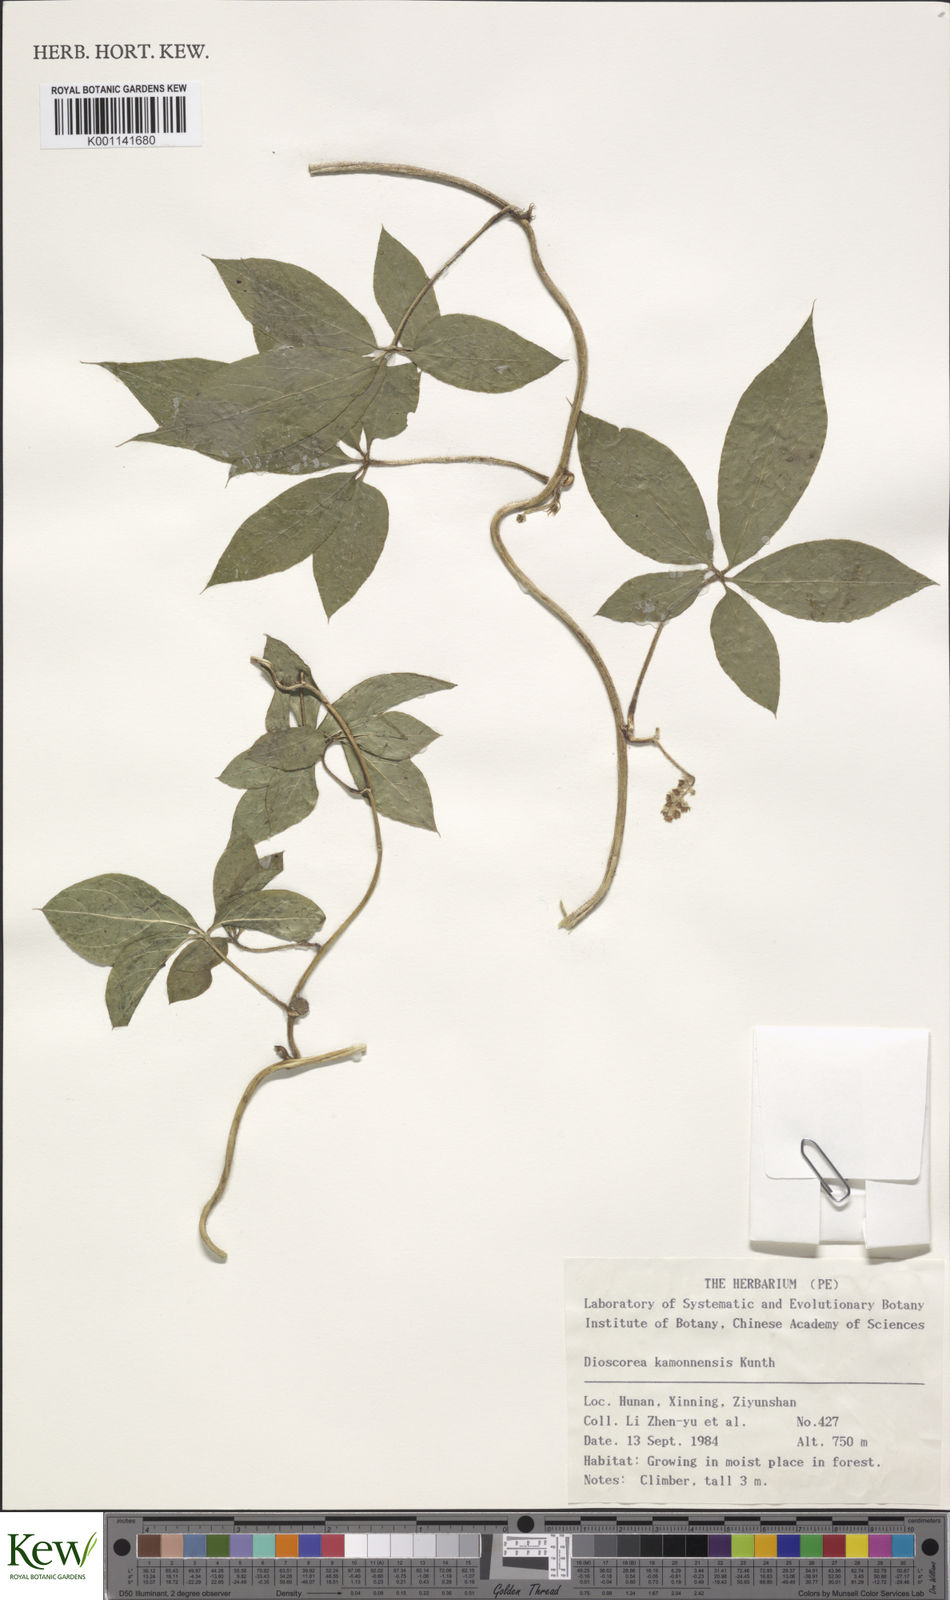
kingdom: Plantae
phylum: Tracheophyta
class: Liliopsida
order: Dioscoreales
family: Dioscoreaceae
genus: Dioscorea
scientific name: Dioscorea kamoonensis
